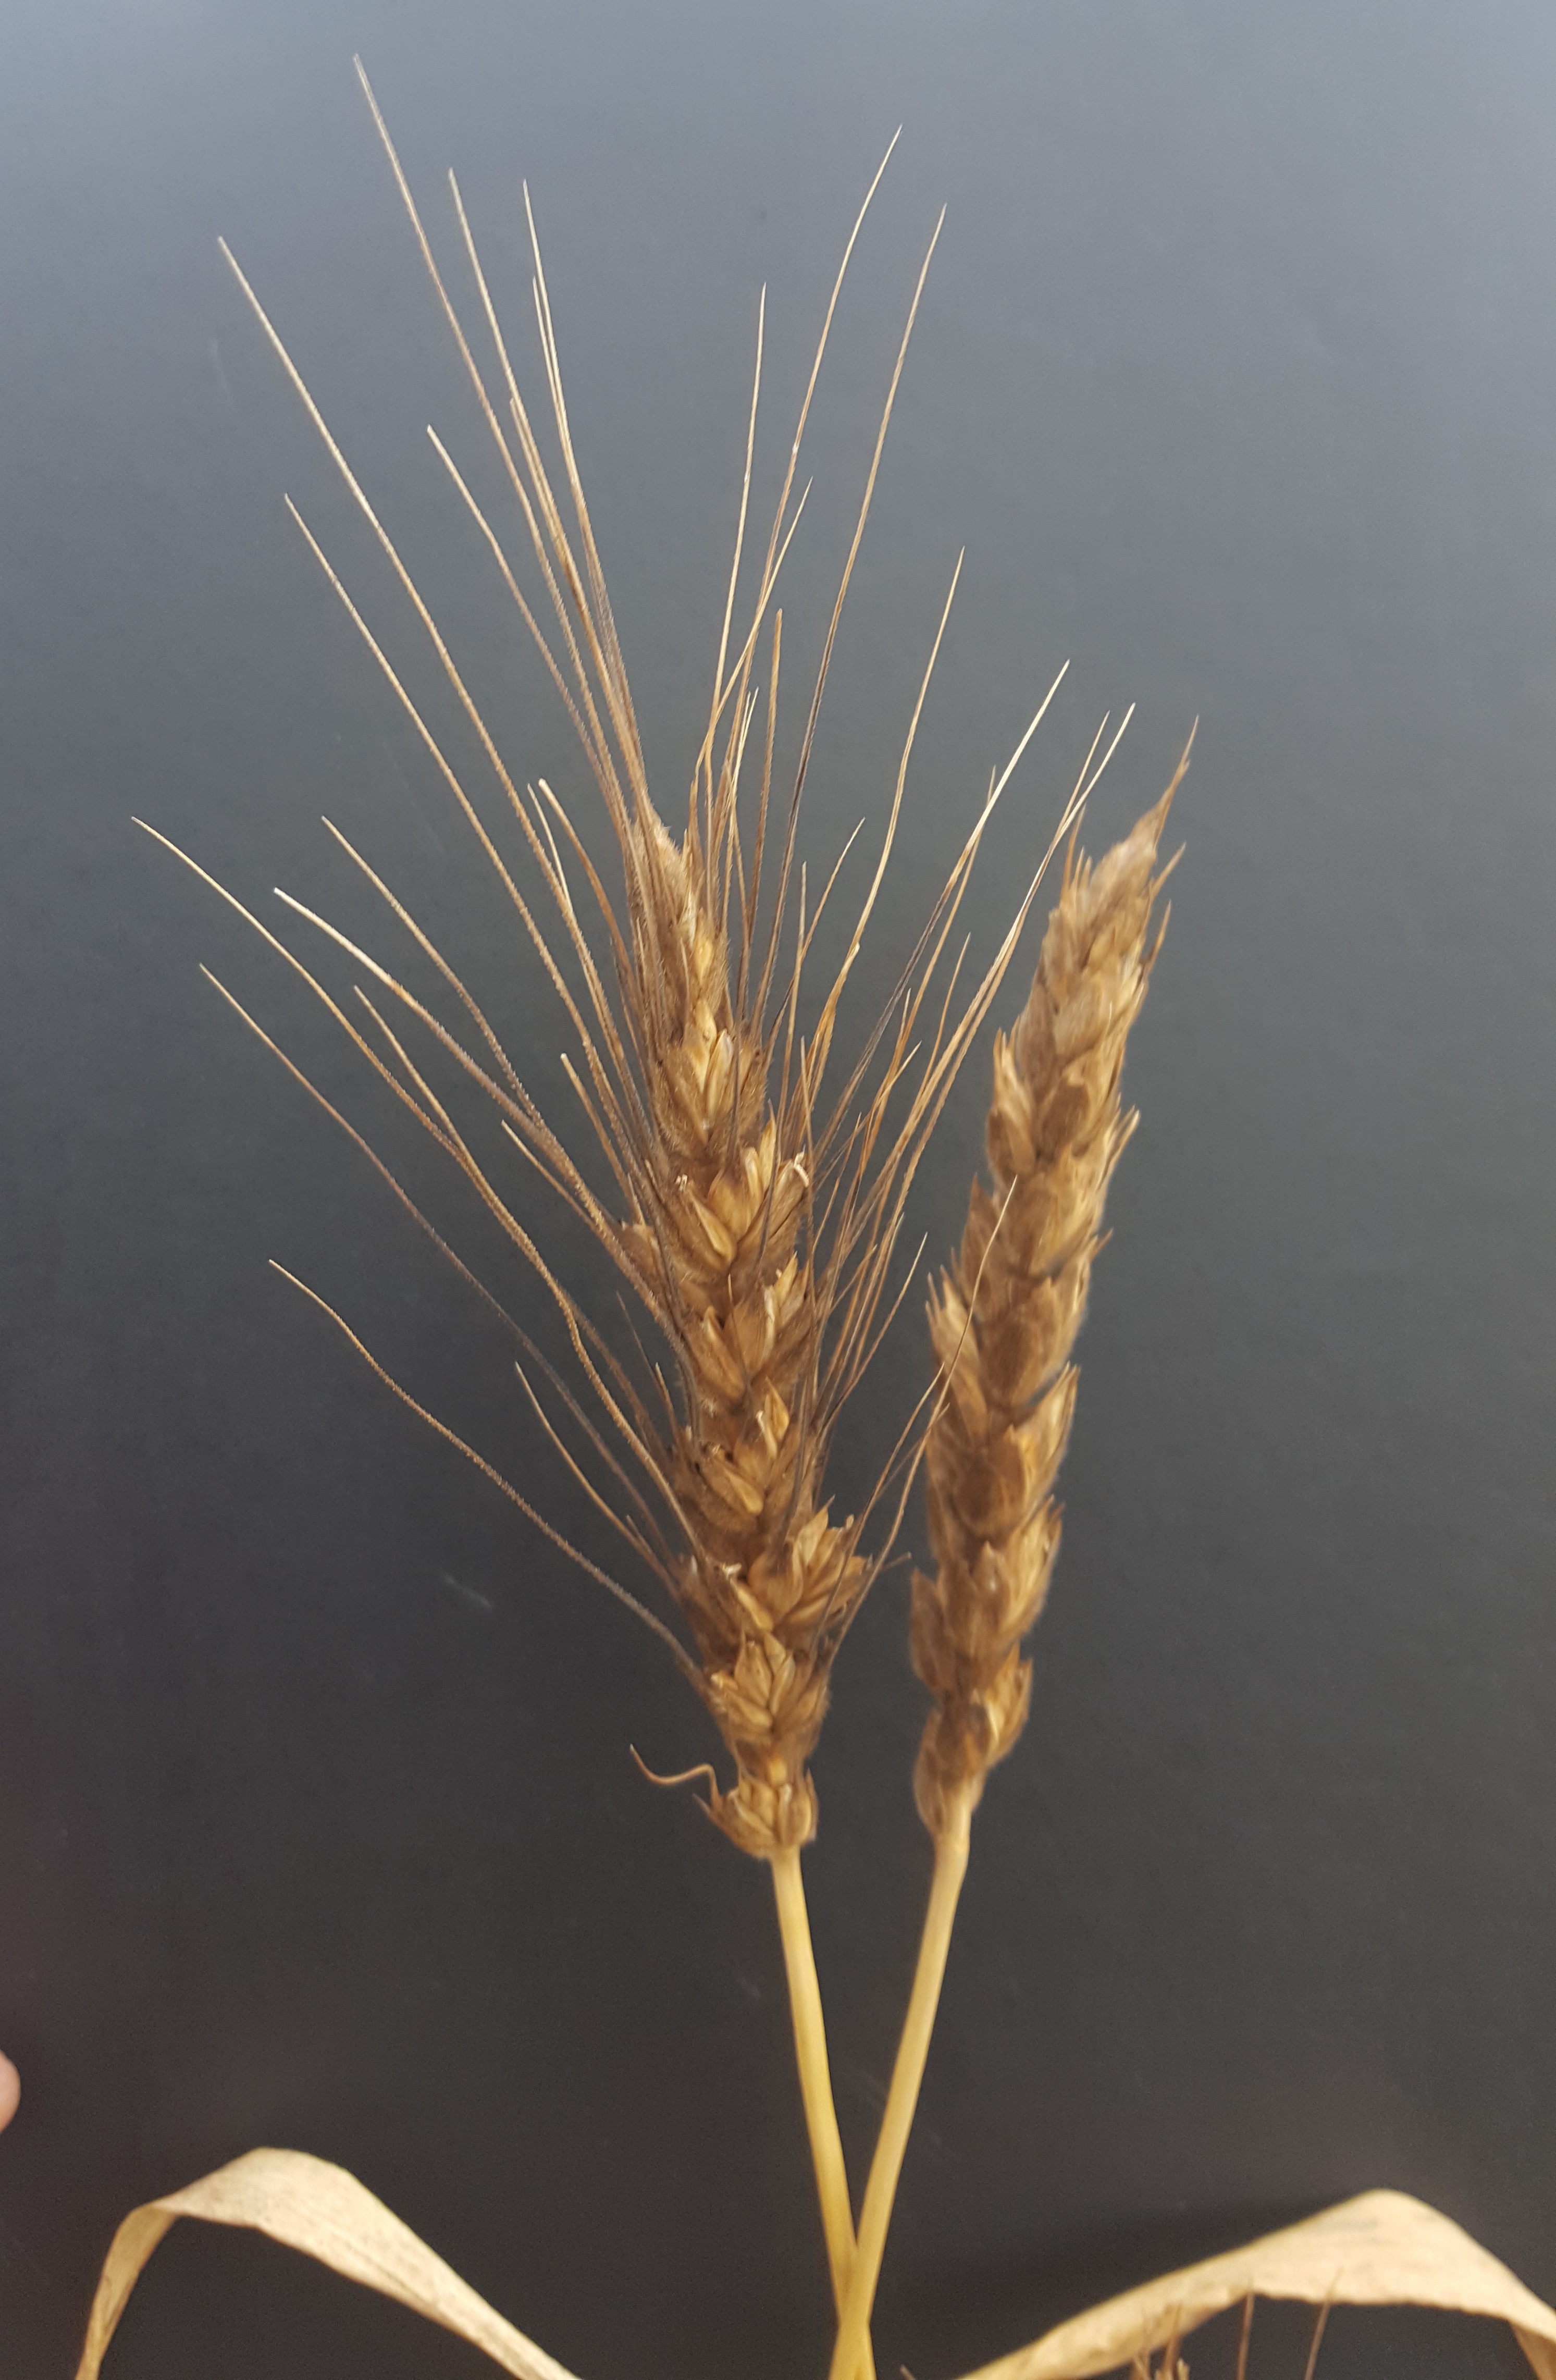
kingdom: Plantae
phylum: Tracheophyta
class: Liliopsida
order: Poales
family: Poaceae
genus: Triticum
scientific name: Triticum aestivum
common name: Common wheat
